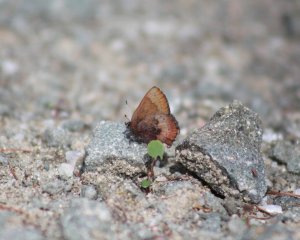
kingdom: Animalia
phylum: Arthropoda
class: Insecta
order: Lepidoptera
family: Lycaenidae
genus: Incisalia
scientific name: Incisalia henrici
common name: Henry's Elfin
